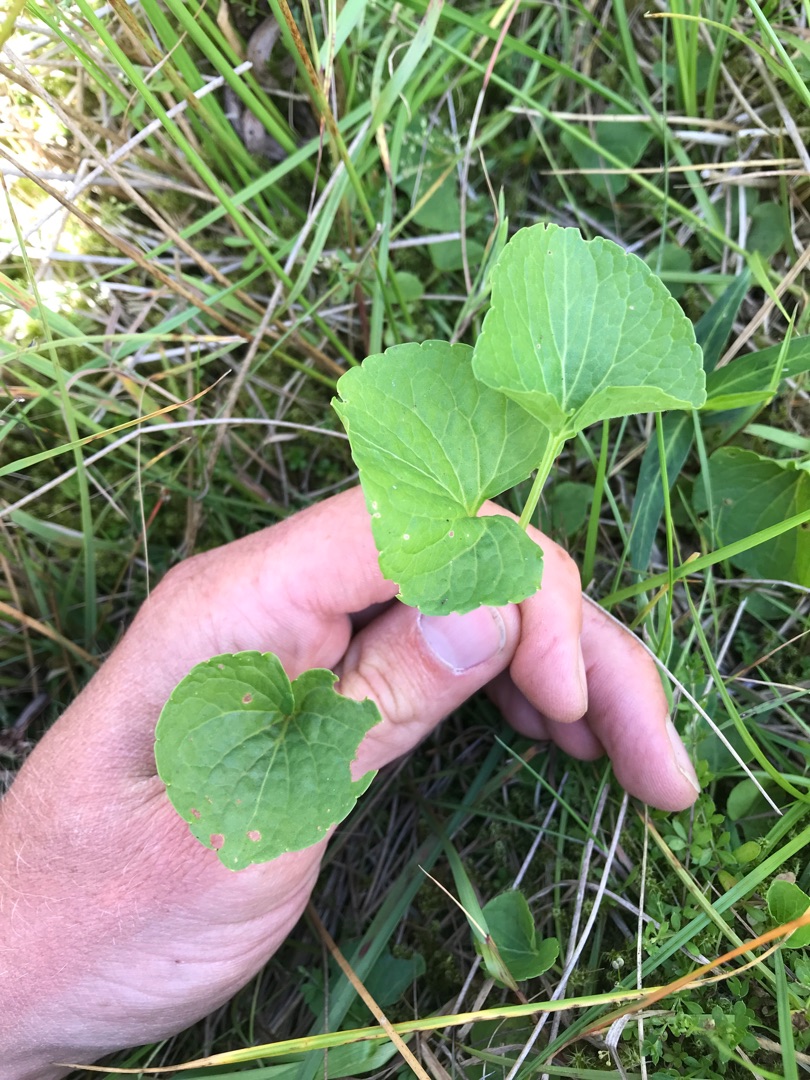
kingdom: Plantae
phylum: Tracheophyta
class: Magnoliopsida
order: Malpighiales
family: Violaceae
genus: Viola
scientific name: Viola palustris
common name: Eng-viol
